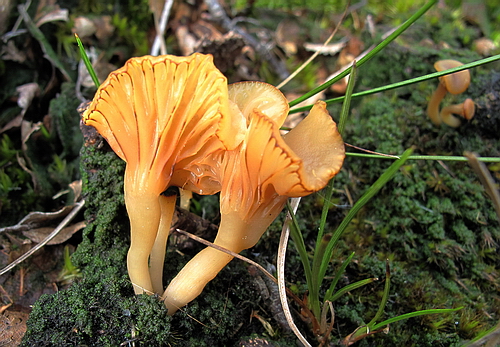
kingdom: Fungi
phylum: Basidiomycota
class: Agaricomycetes
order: Agaricales
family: Hygrophoraceae
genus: Lichenomphalia
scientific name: Lichenomphalia umbellifera
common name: tørve-lavhat
